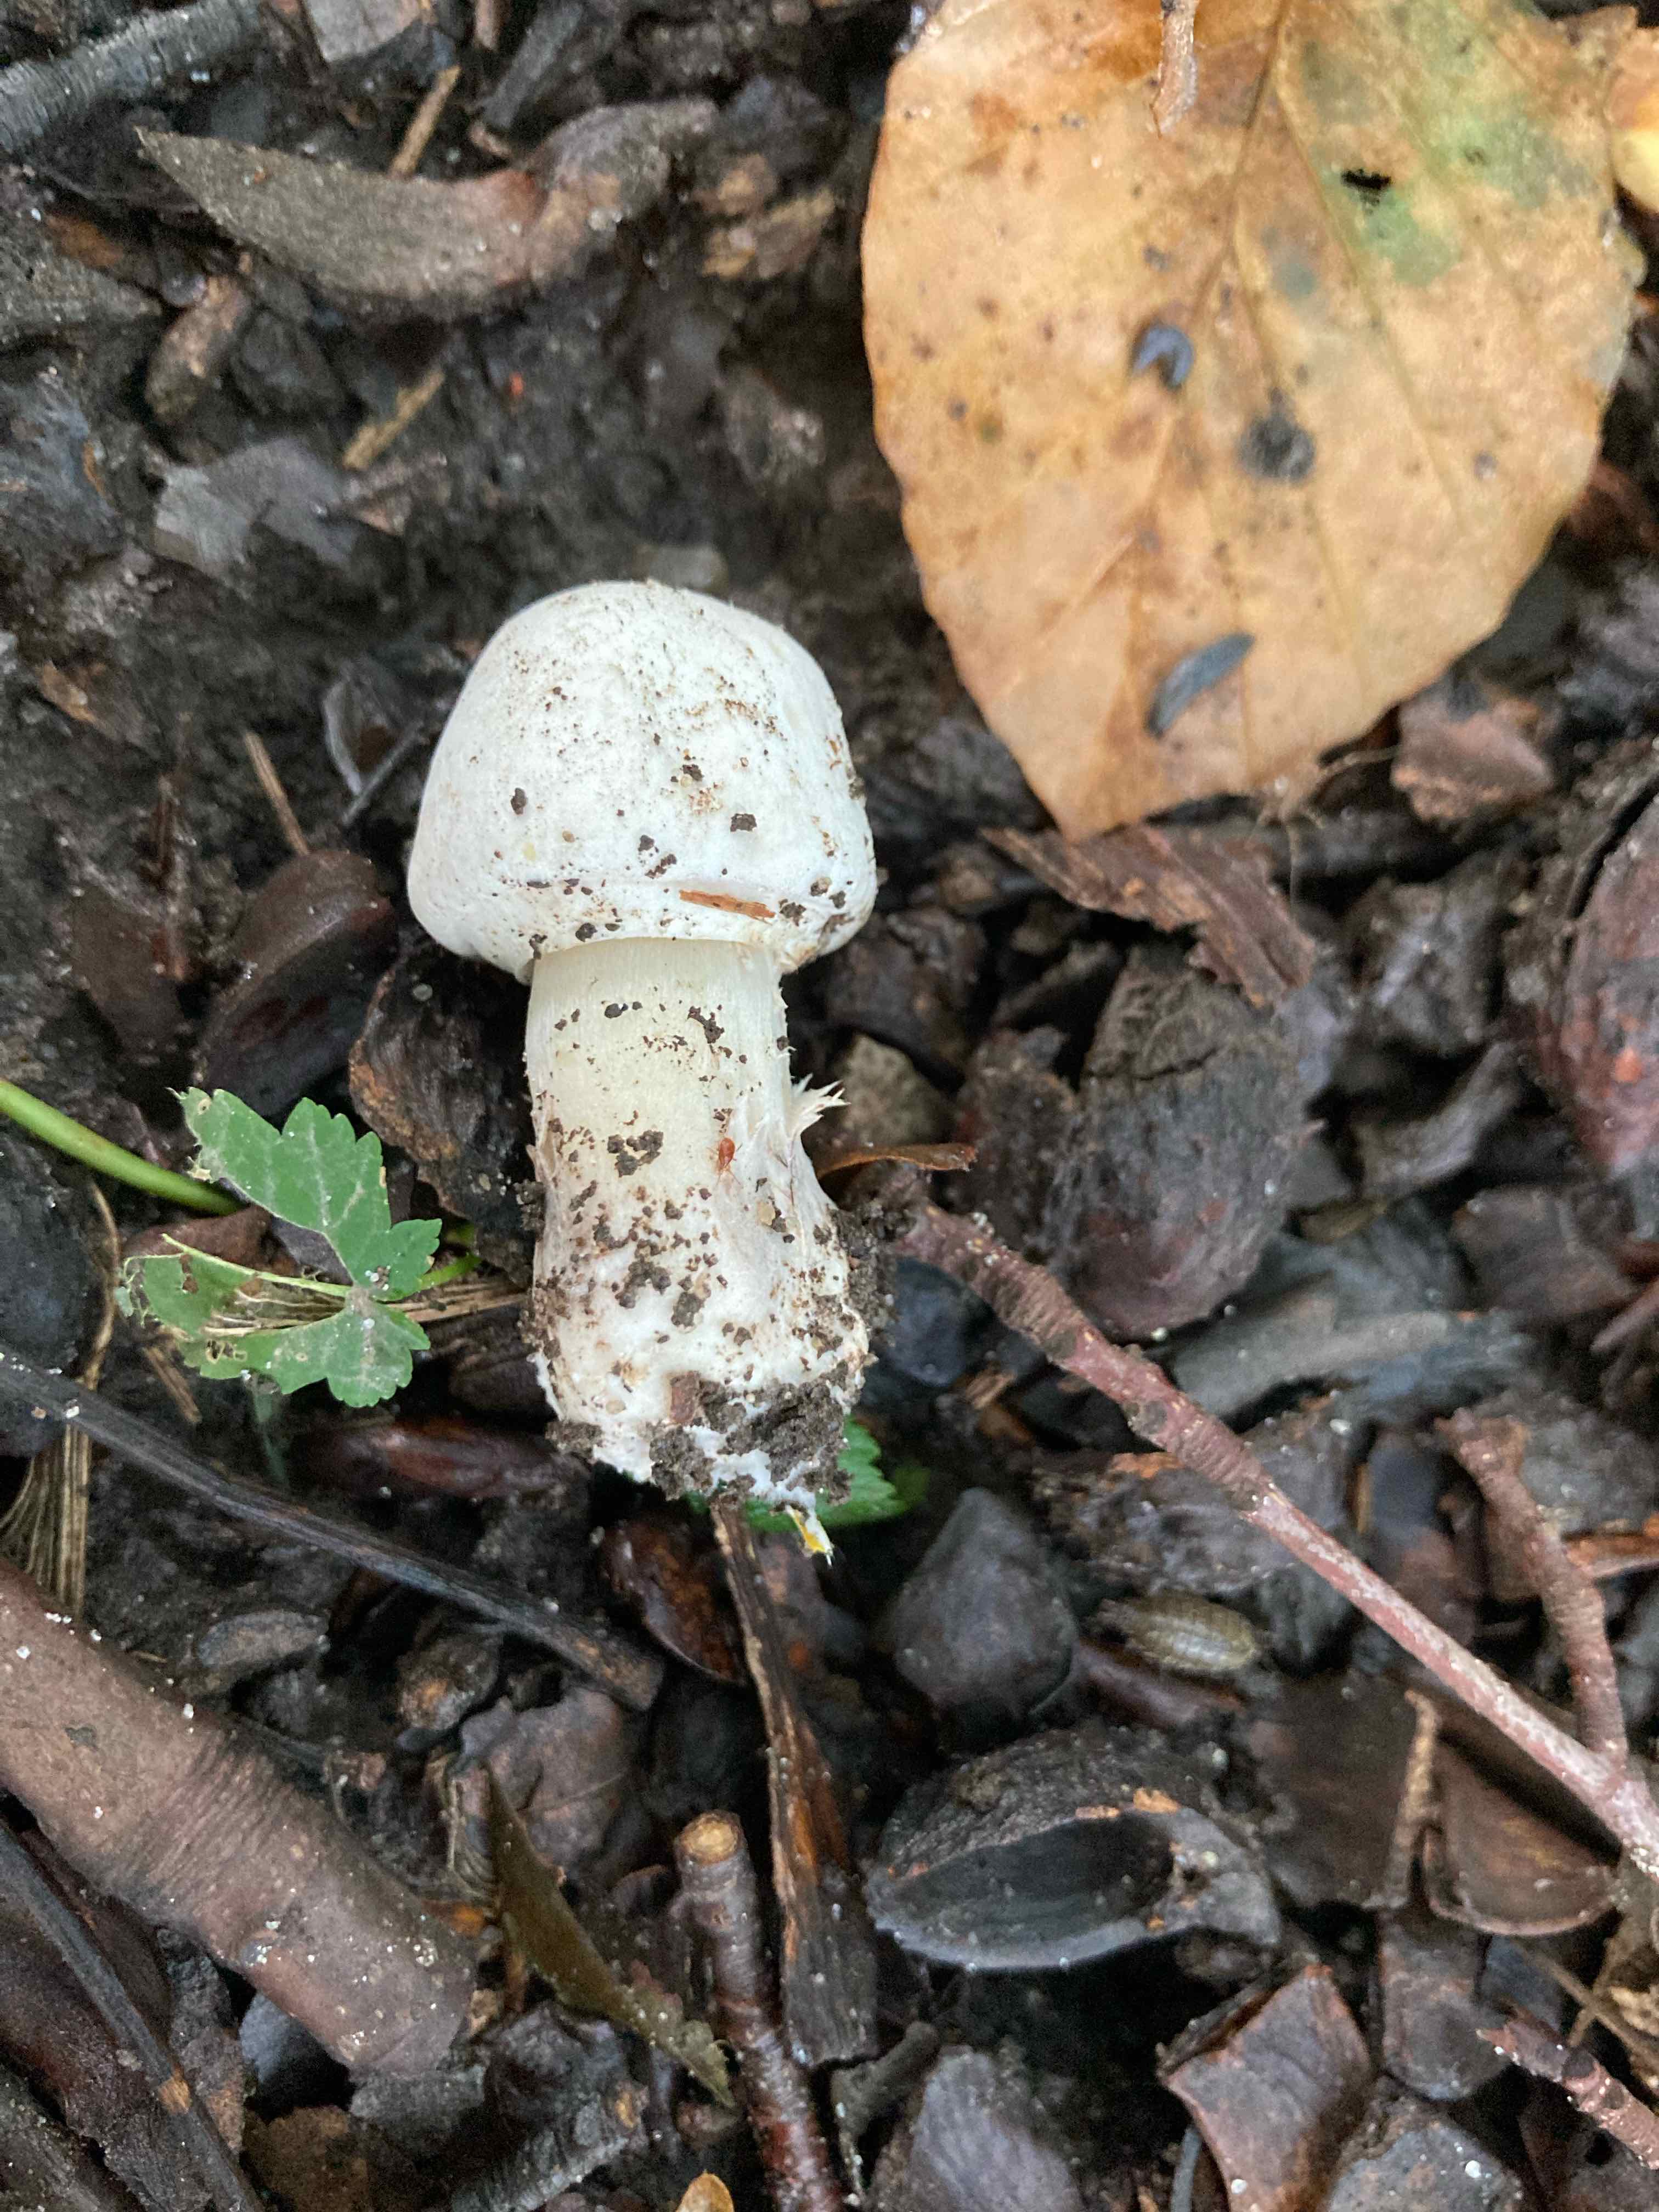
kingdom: Fungi
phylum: Basidiomycota
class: Agaricomycetes
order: Agaricales
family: Agaricaceae
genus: Agaricus
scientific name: Agaricus
